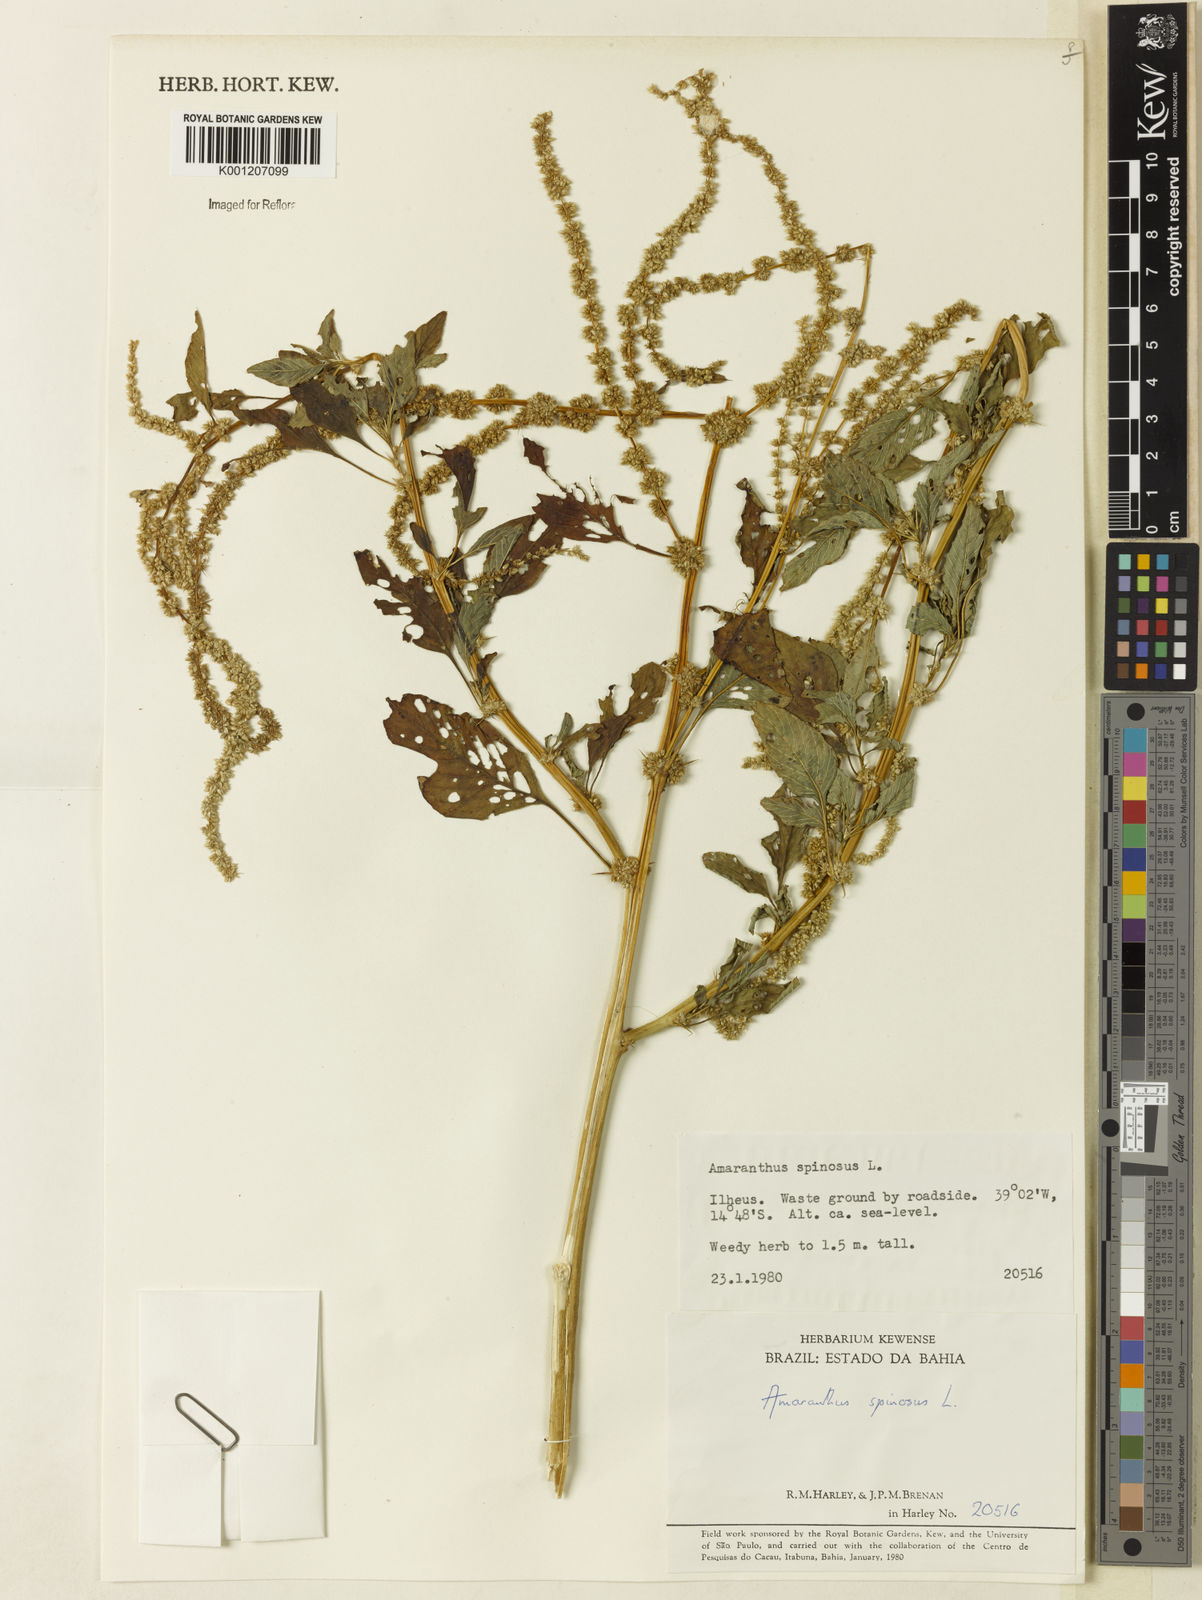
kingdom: Plantae
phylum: Tracheophyta
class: Magnoliopsida
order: Caryophyllales
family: Amaranthaceae
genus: Amaranthus
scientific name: Amaranthus spinosus
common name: Spiny amaranth
